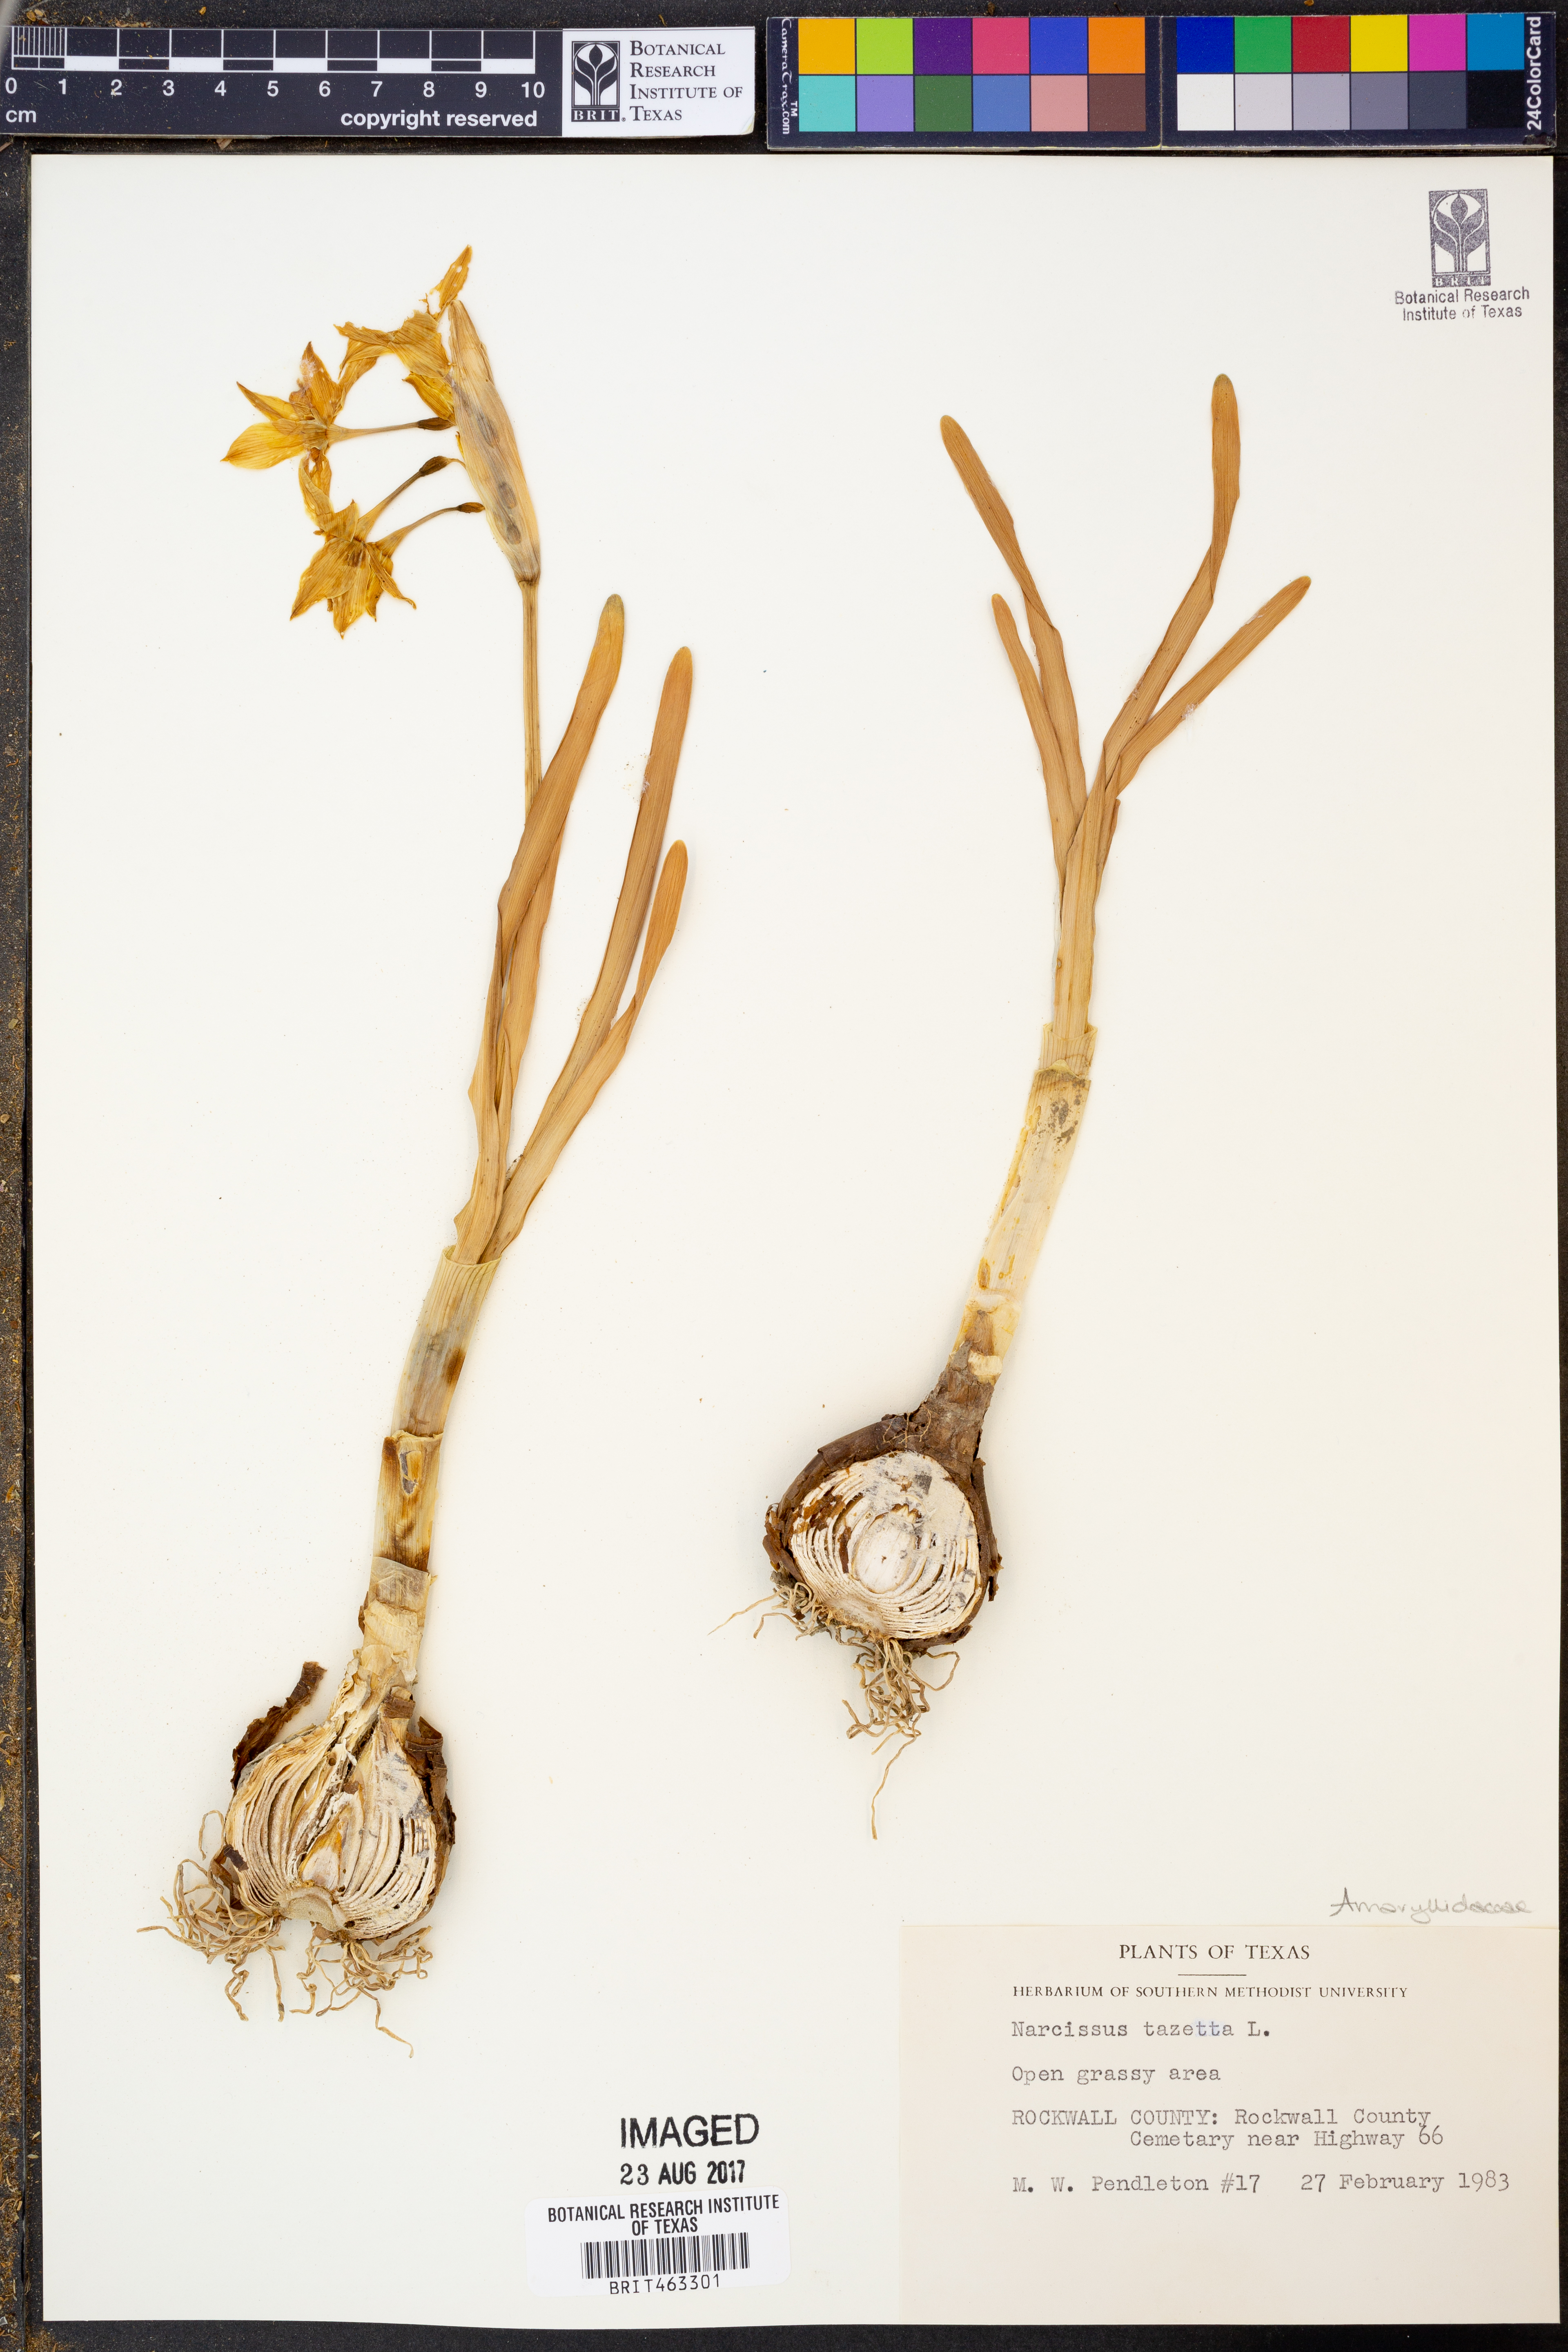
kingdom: Plantae
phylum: Tracheophyta
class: Liliopsida
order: Asparagales
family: Amaryllidaceae
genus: Narcissus
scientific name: Narcissus tazetta
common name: Bunch-flowered daffodil
